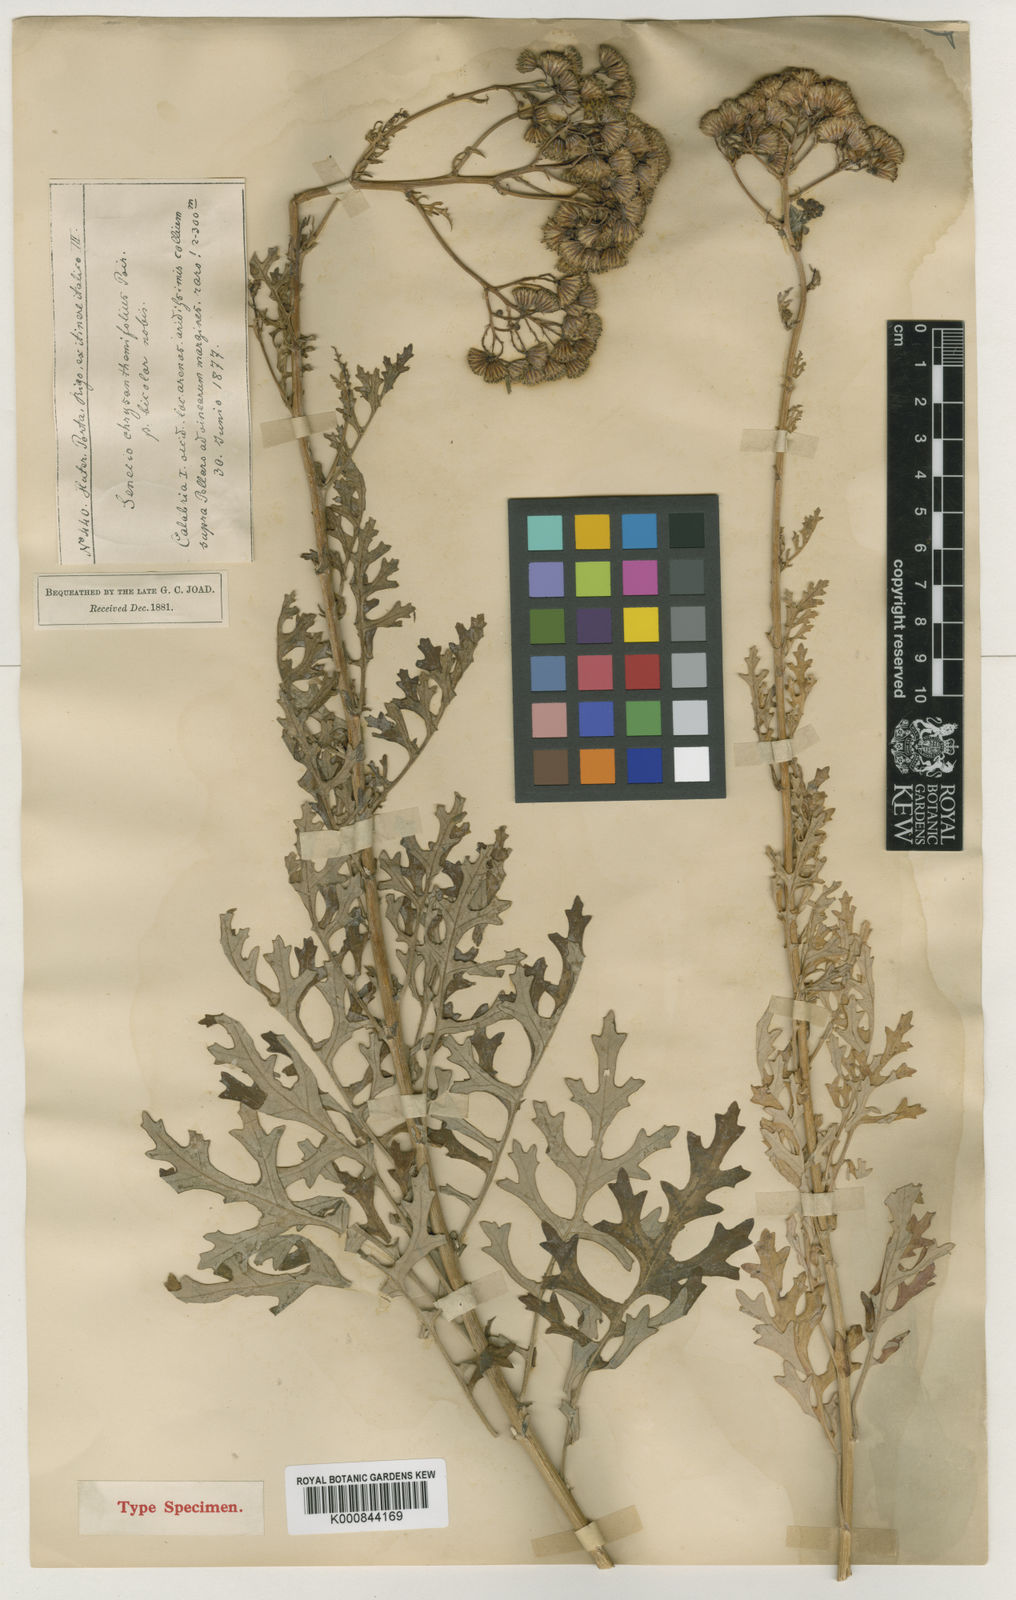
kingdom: Plantae
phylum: Tracheophyta
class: Magnoliopsida
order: Asterales
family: Asteraceae
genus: Jacobaea
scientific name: Jacobaea maritima
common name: Silver ragwort
